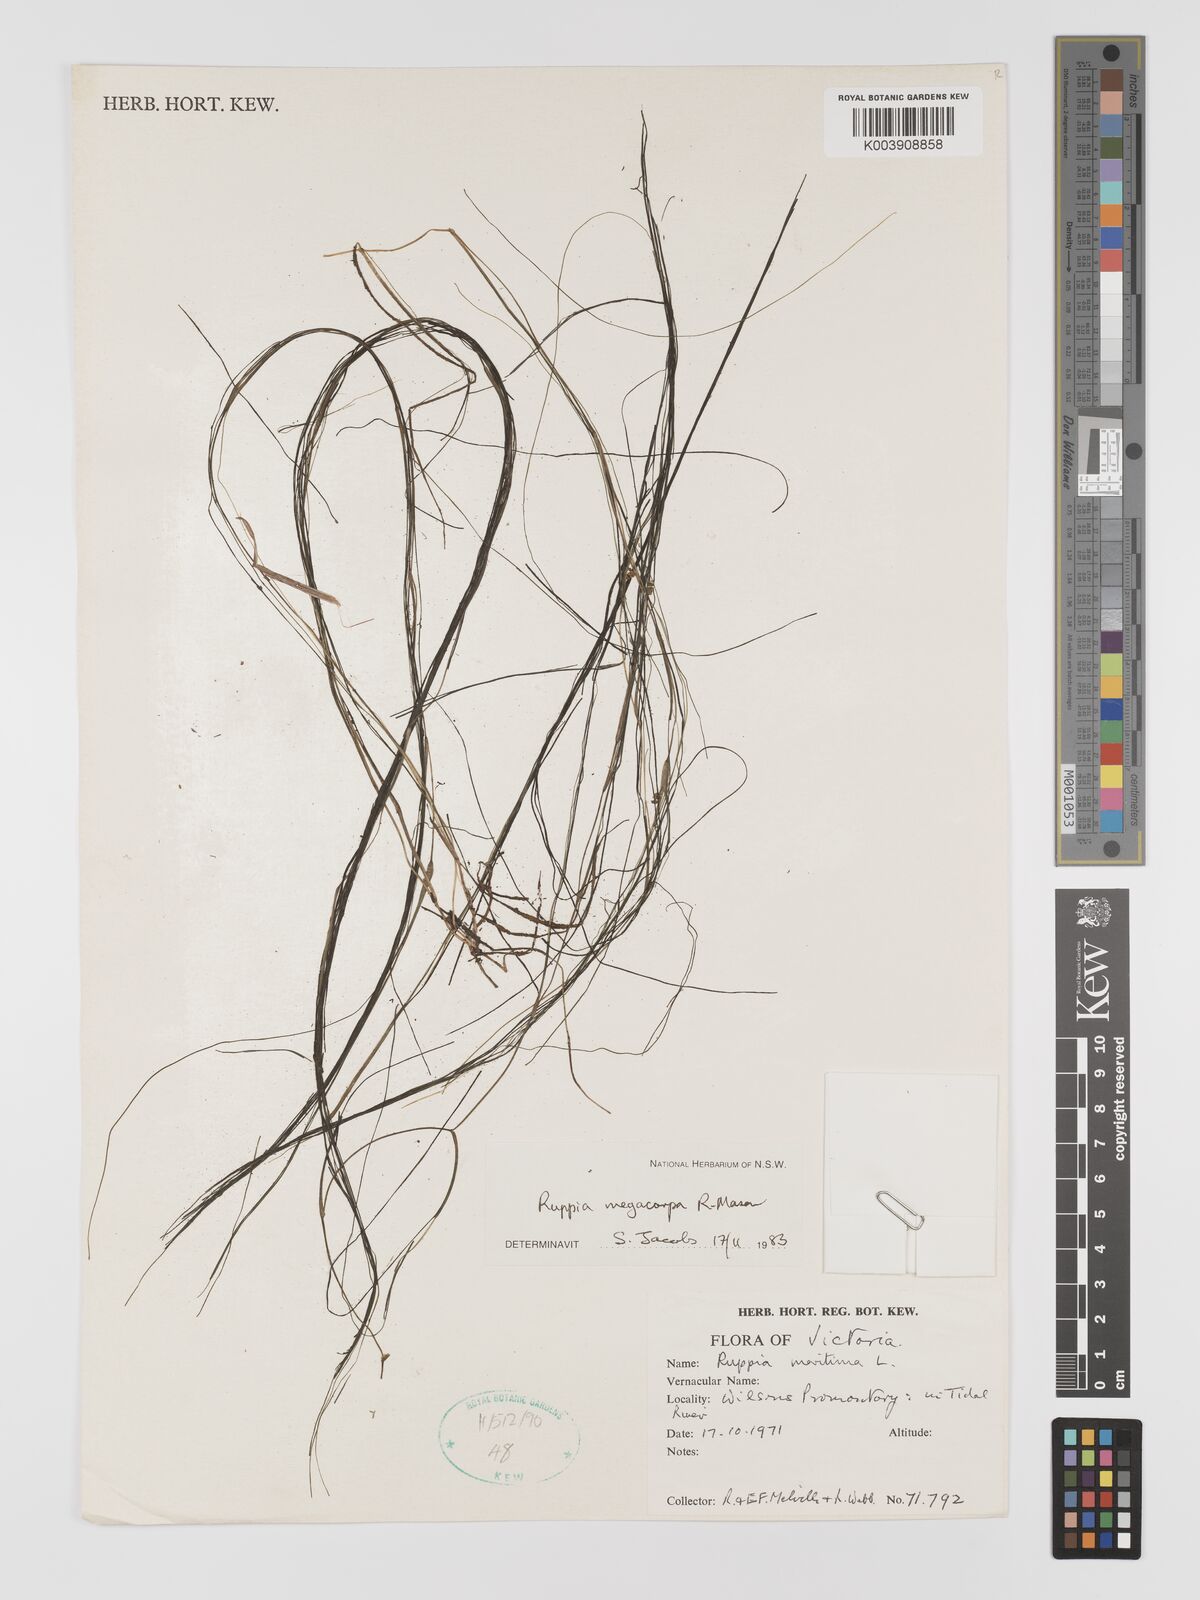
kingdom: Plantae
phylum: Tracheophyta
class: Liliopsida
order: Alismatales
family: Ruppiaceae
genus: Ruppia
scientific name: Ruppia megacarpa
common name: Large-fruit seatassel
